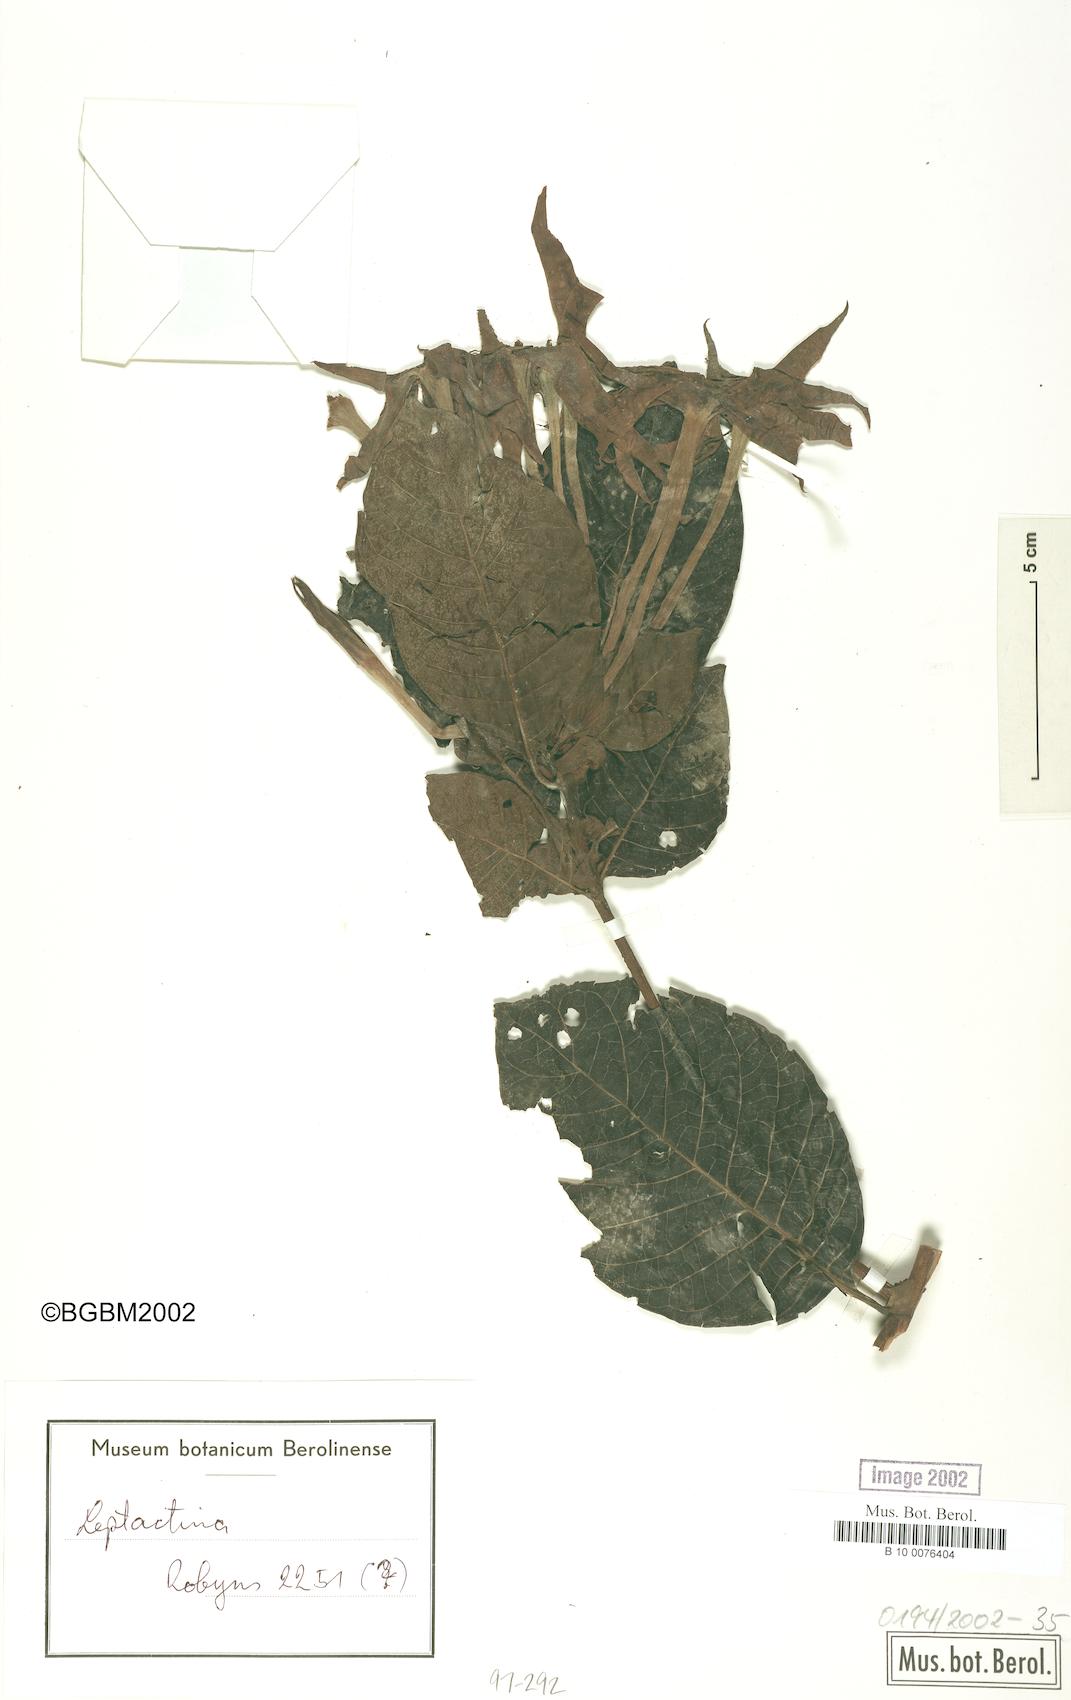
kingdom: Plantae
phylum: Tracheophyta
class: Magnoliopsida
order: Gentianales
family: Rubiaceae
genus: Leptactinia
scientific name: Leptactinia
